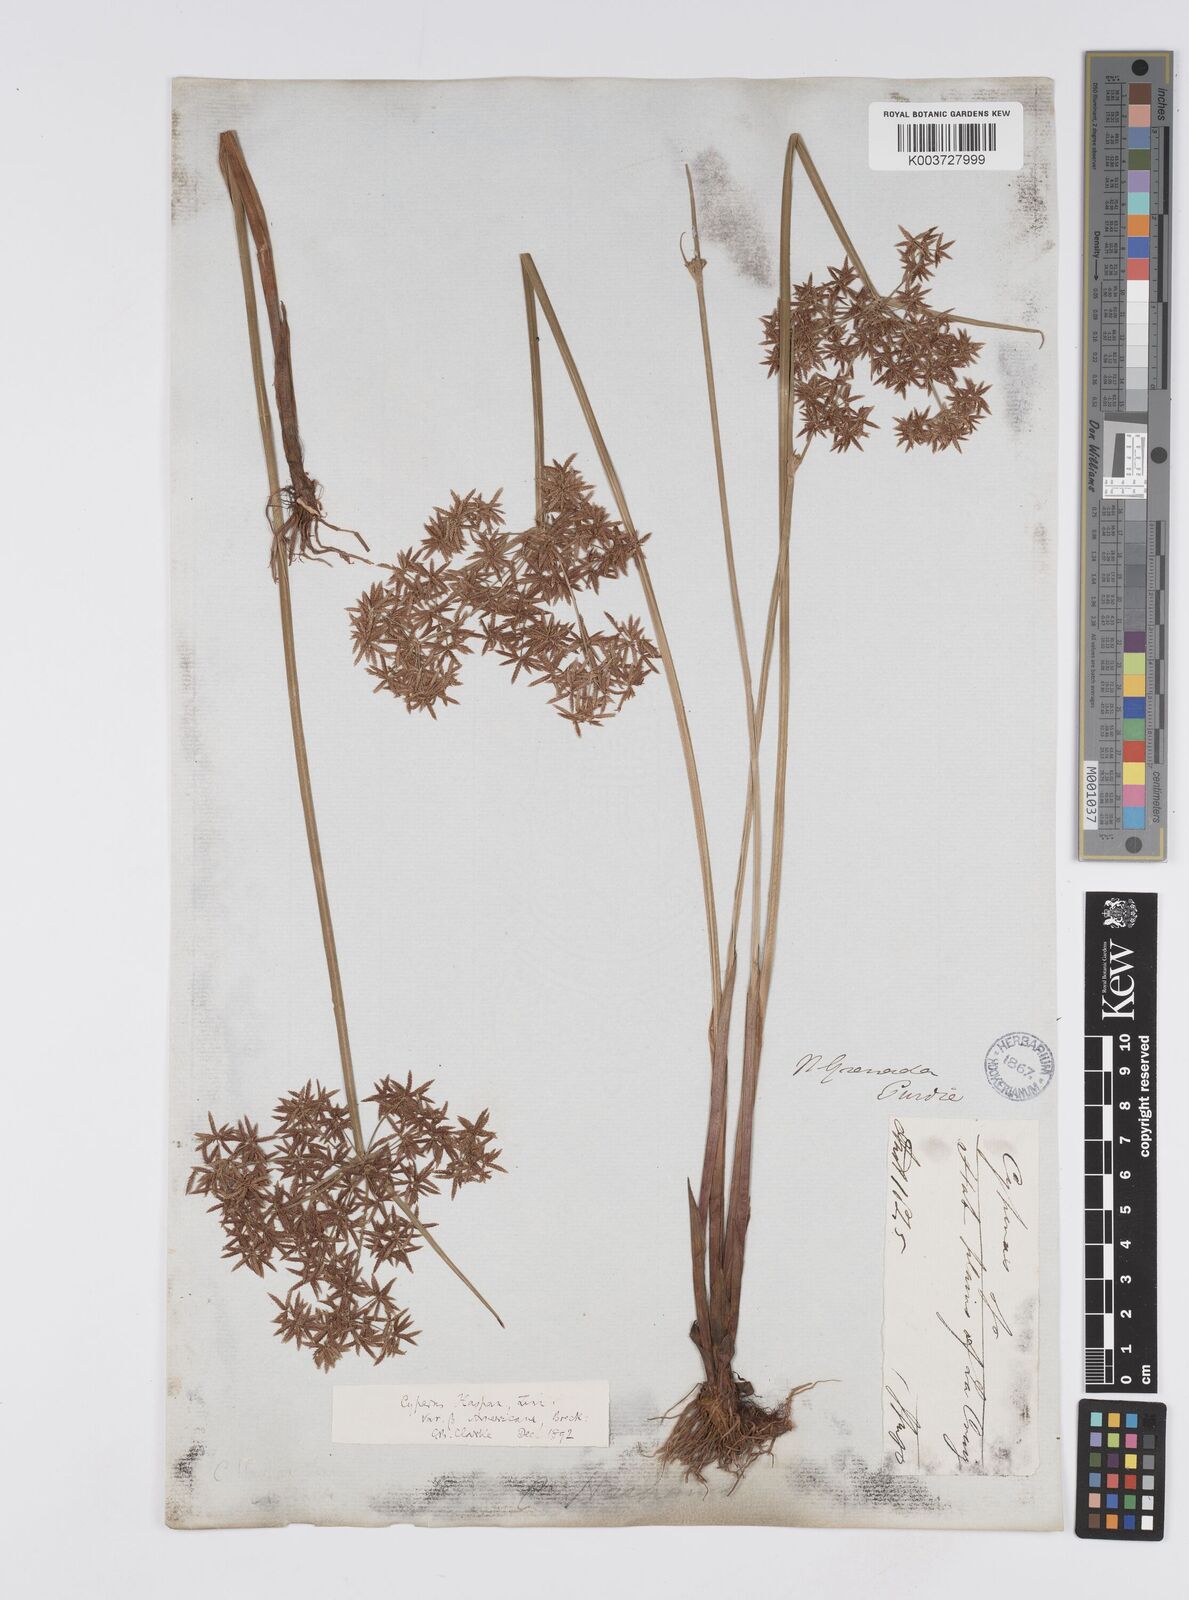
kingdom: Plantae
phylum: Tracheophyta
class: Liliopsida
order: Poales
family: Cyperaceae
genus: Cyperus
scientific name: Cyperus haspan
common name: Haspan flatsedge
